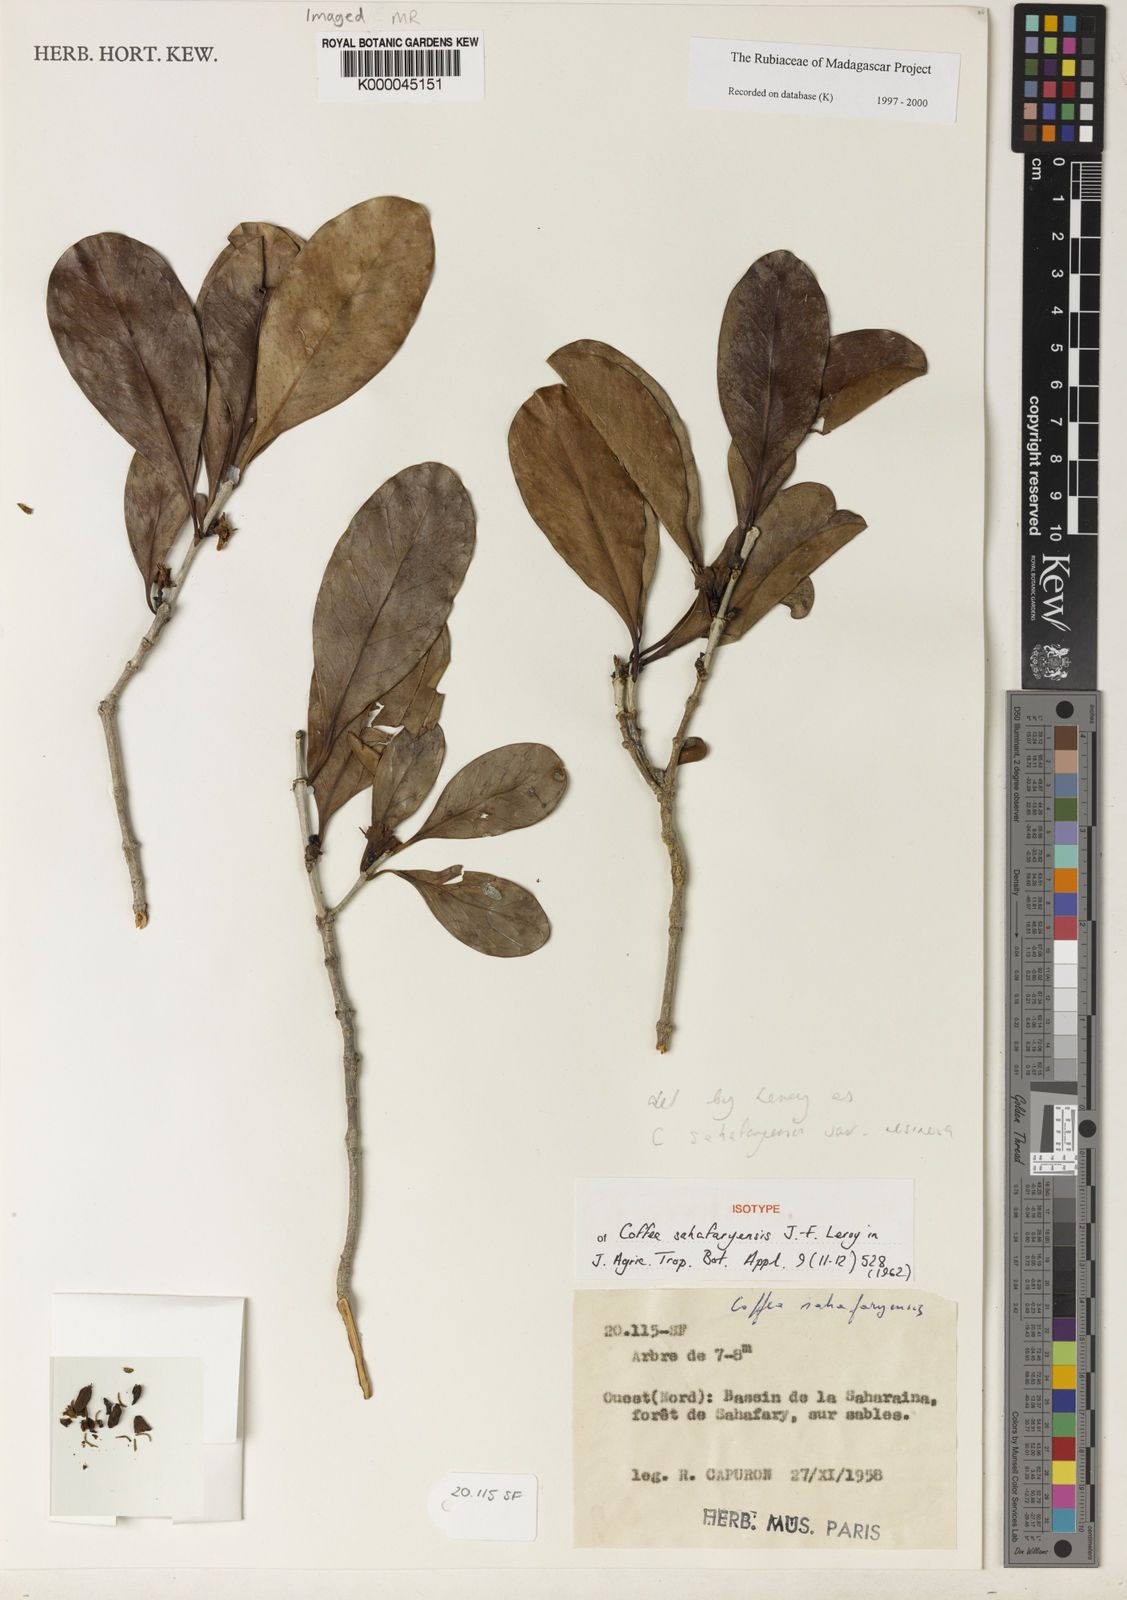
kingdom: Plantae
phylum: Tracheophyta
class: Magnoliopsida
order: Gentianales
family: Rubiaceae
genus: Coffea
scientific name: Coffea sahafaryensis
